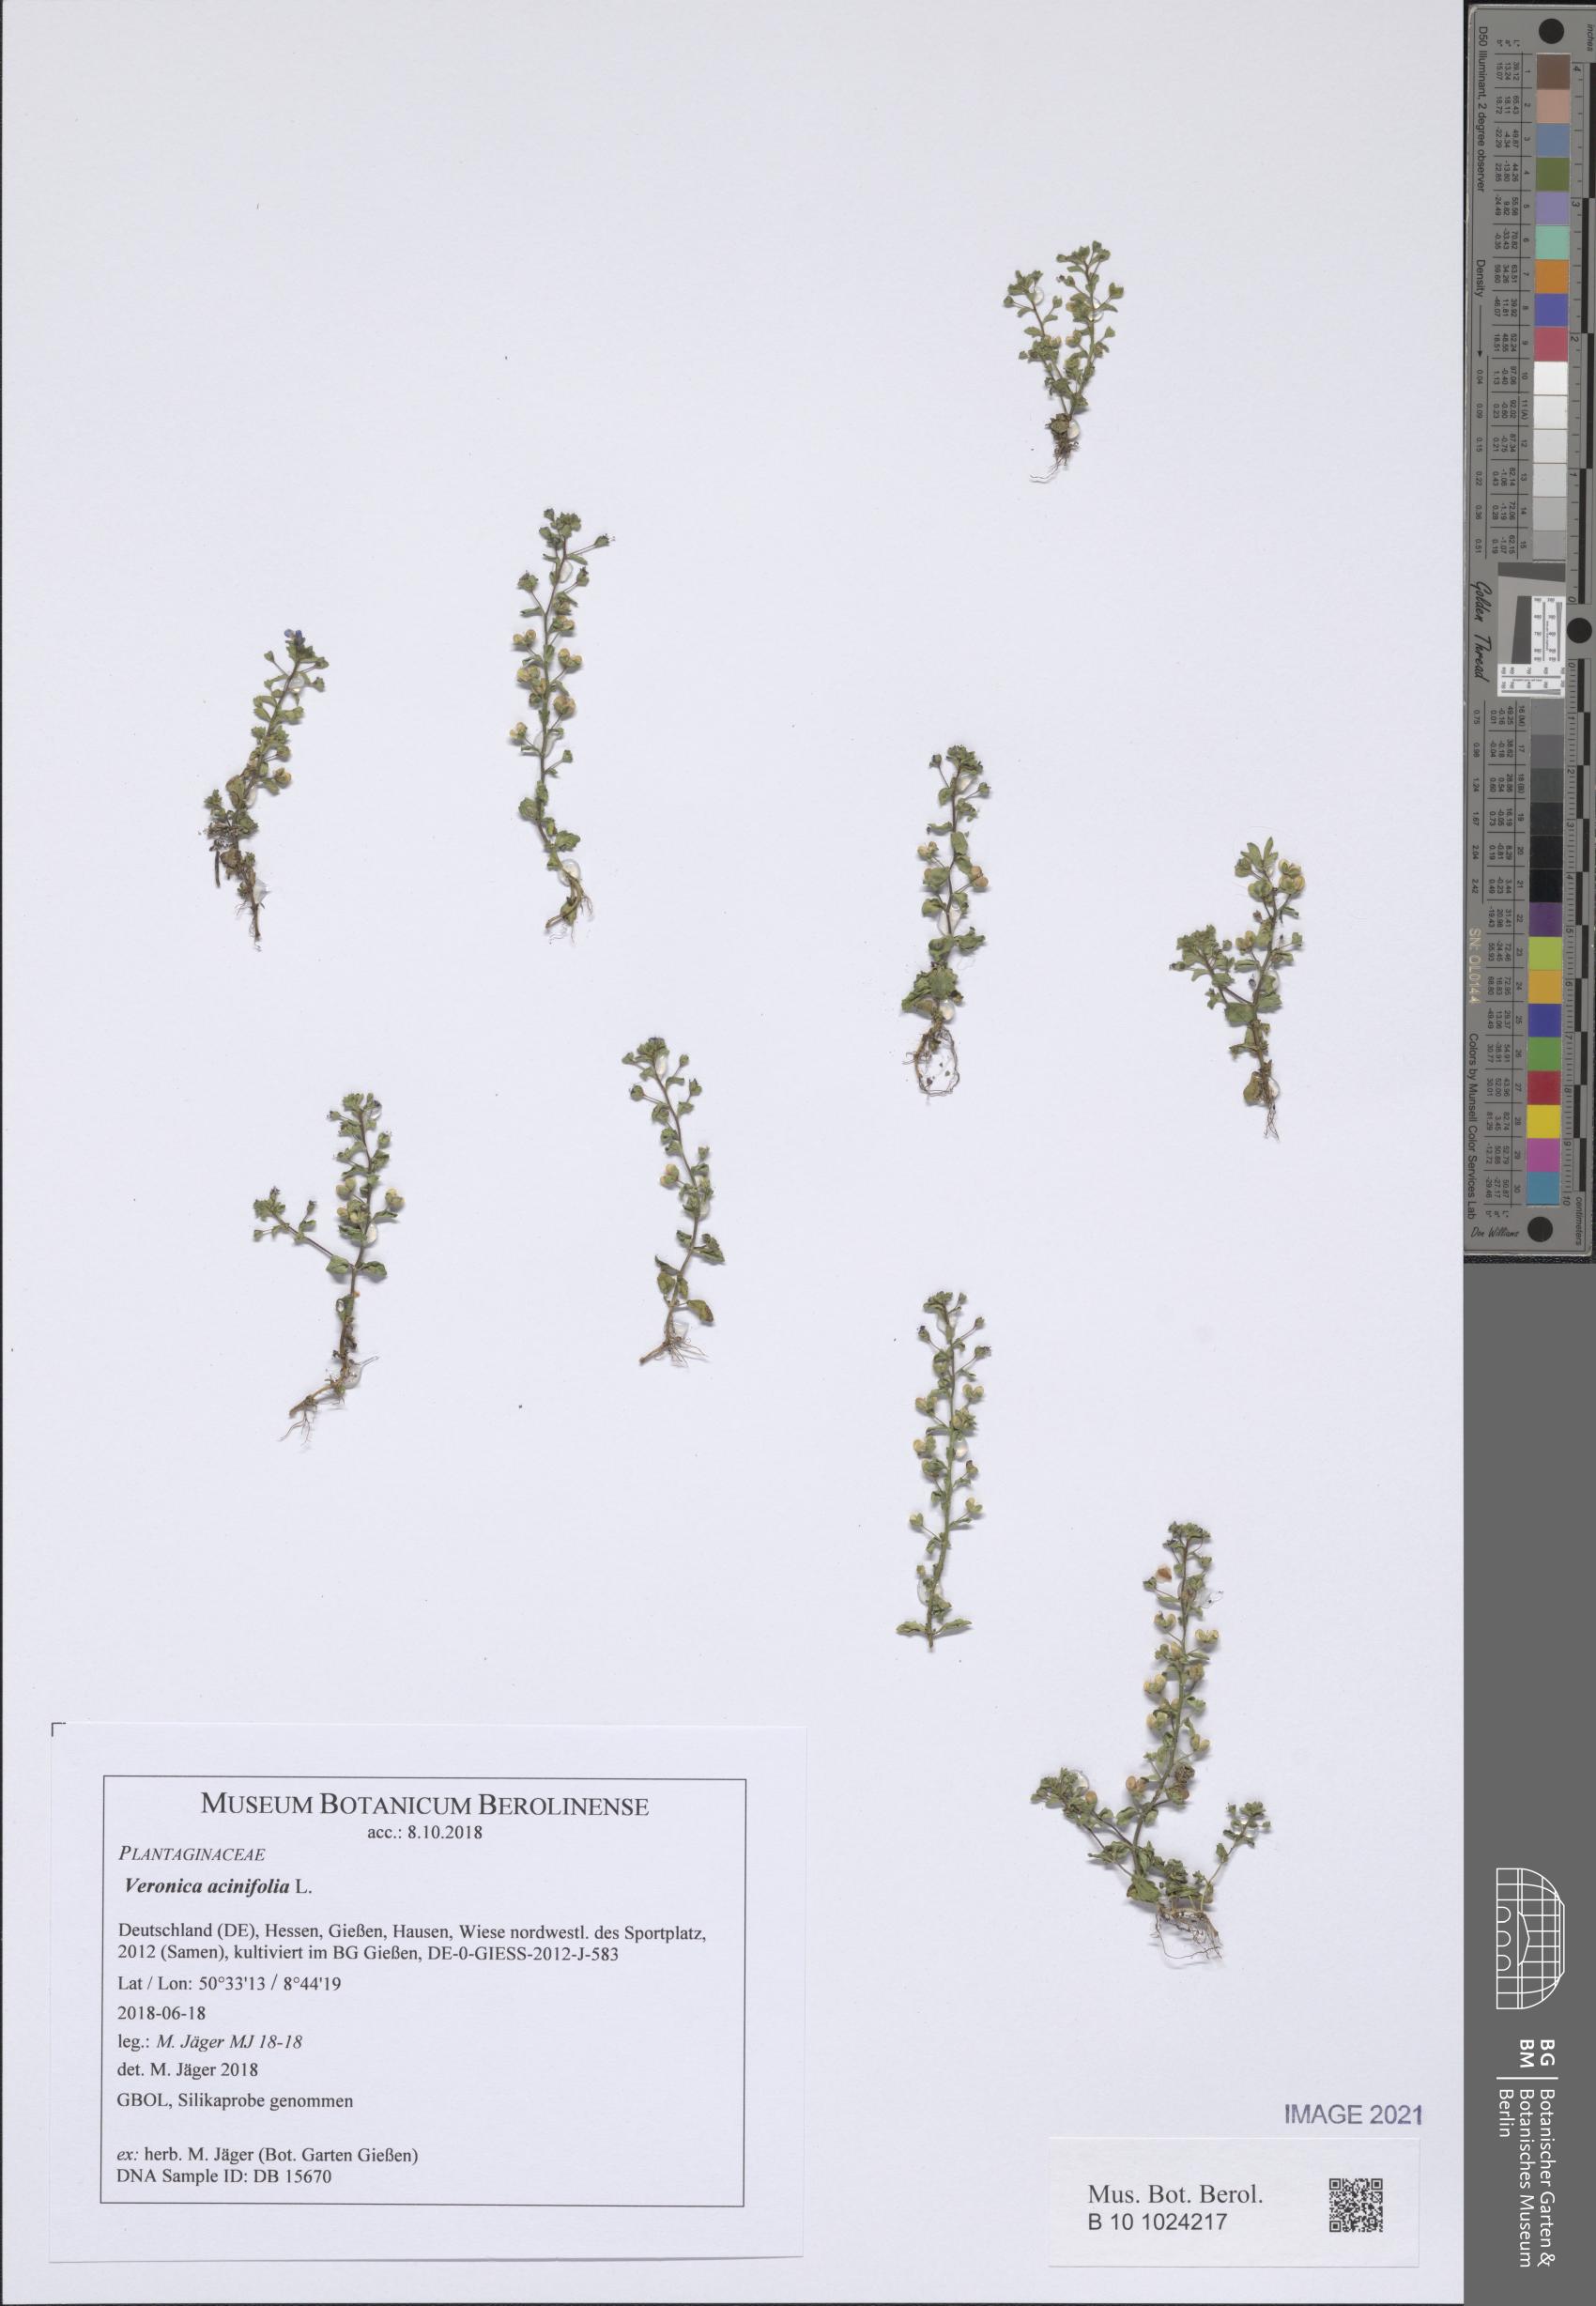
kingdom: Plantae
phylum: Tracheophyta
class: Magnoliopsida
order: Lamiales
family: Plantaginaceae
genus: Veronica
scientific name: Veronica acinifolia
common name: French speedwell
